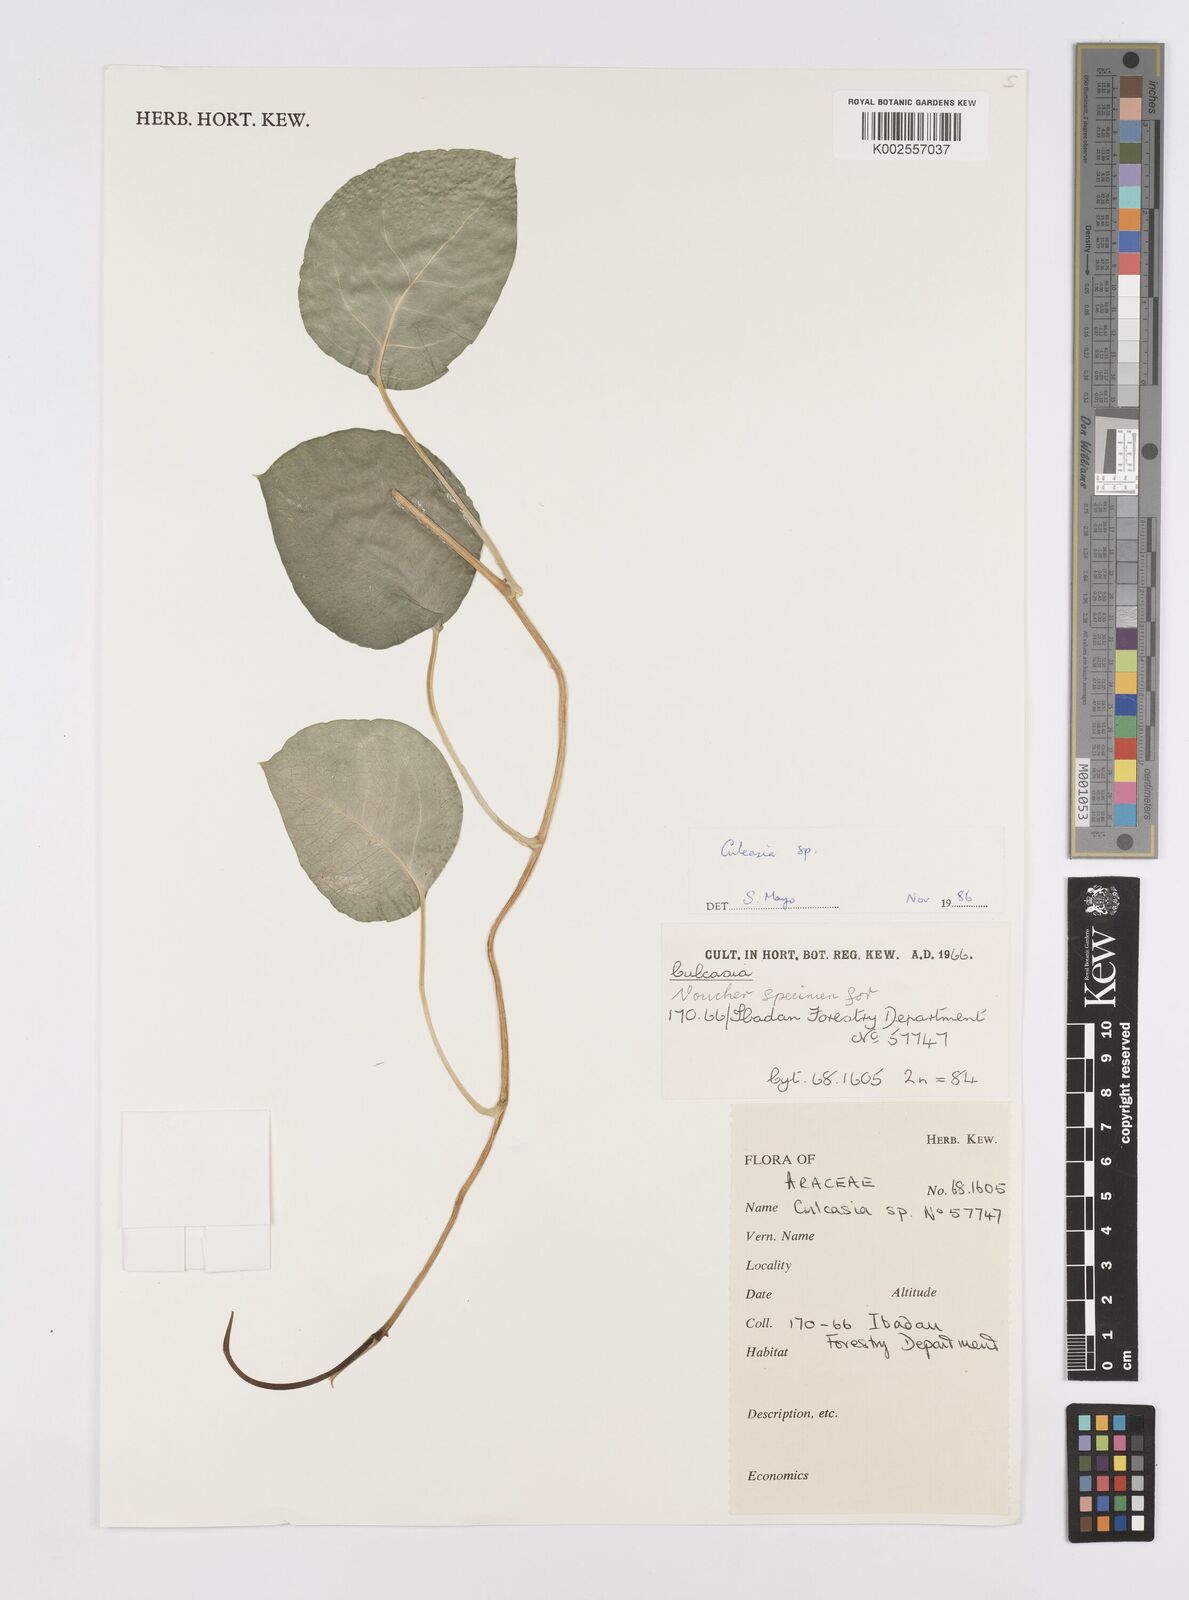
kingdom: Plantae
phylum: Tracheophyta
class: Liliopsida
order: Alismatales
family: Araceae
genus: Culcasia
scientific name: Culcasia
